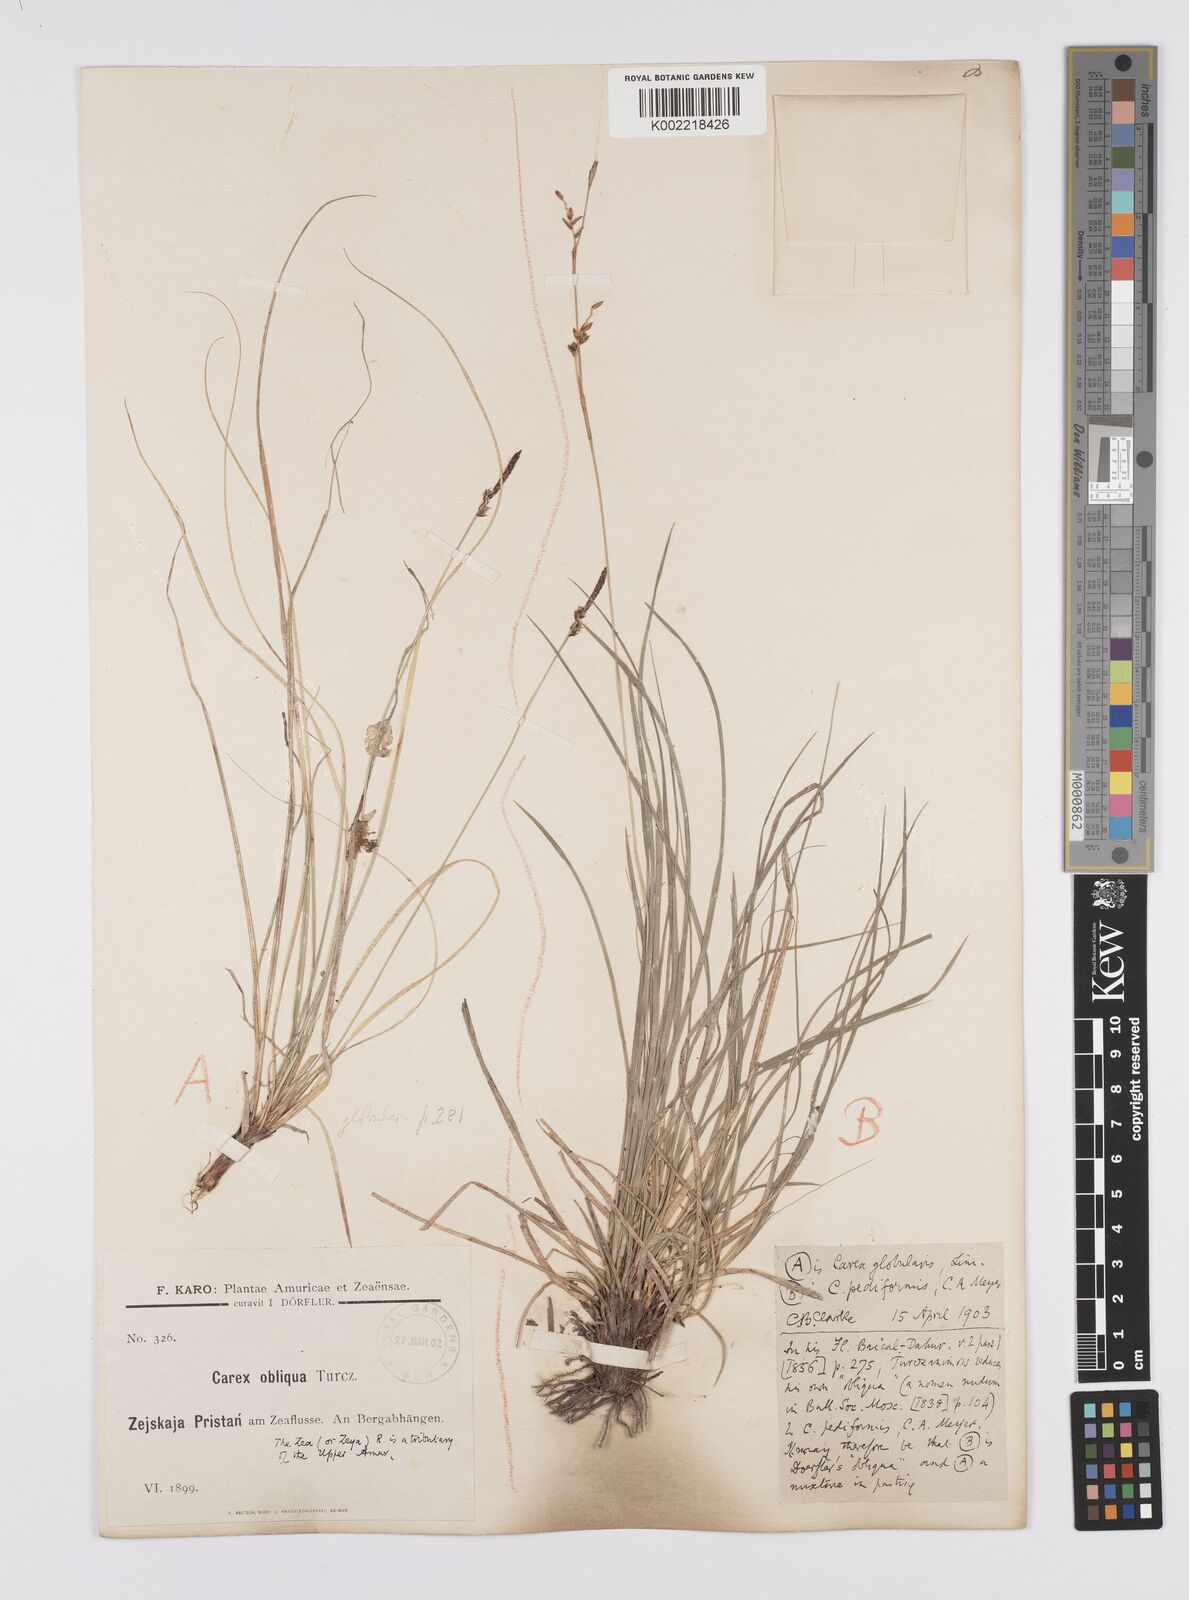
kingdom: Plantae
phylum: Tracheophyta
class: Liliopsida
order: Poales
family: Cyperaceae
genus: Carex
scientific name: Carex globularis
